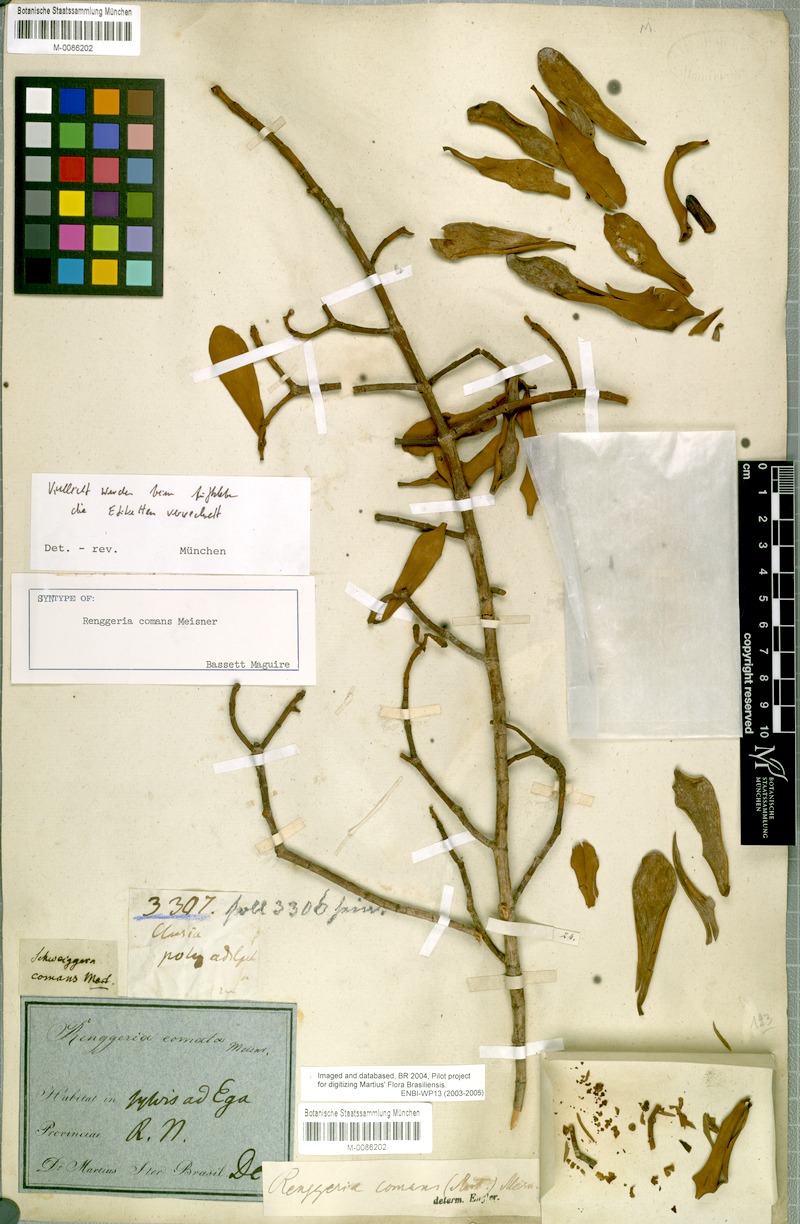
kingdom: Plantae
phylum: Tracheophyta
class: Magnoliopsida
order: Malpighiales
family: Clusiaceae
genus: Clusia
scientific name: Clusia comans
